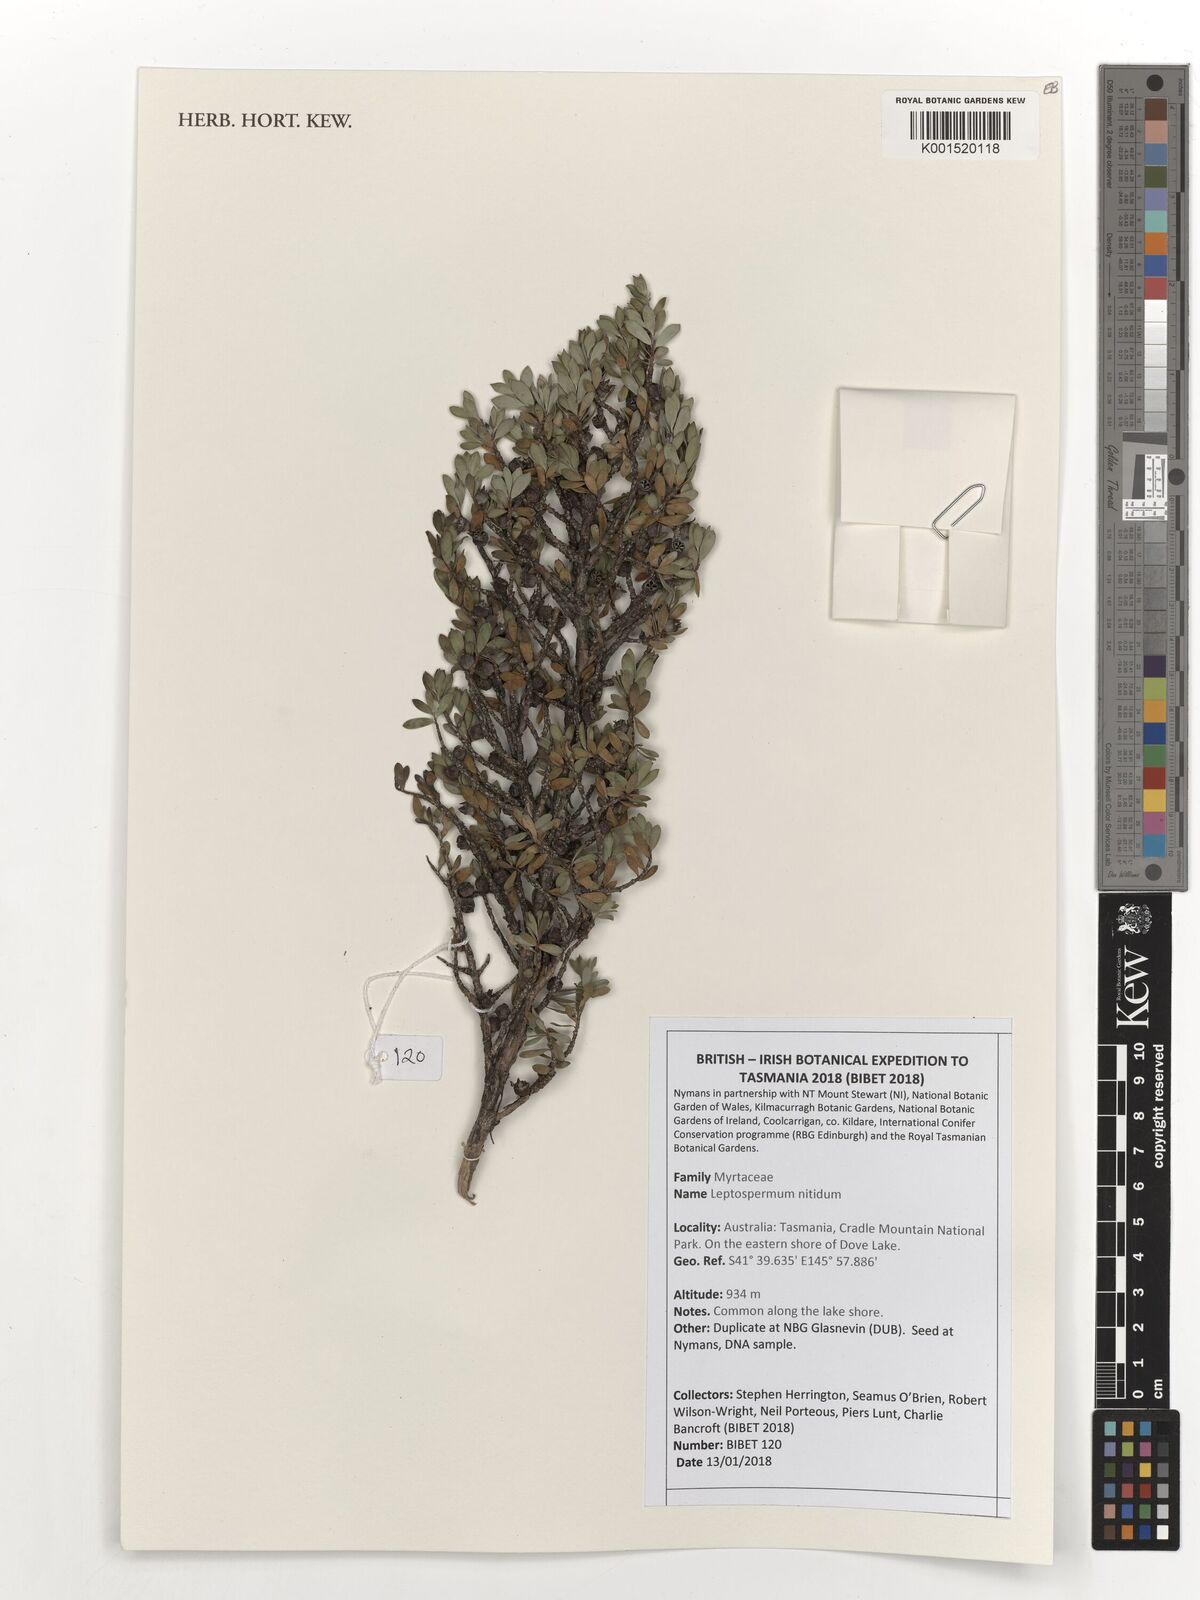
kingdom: Plantae
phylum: Tracheophyta
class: Magnoliopsida
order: Myrtales
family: Myrtaceae
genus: Leptospermum
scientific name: Leptospermum nitidum
